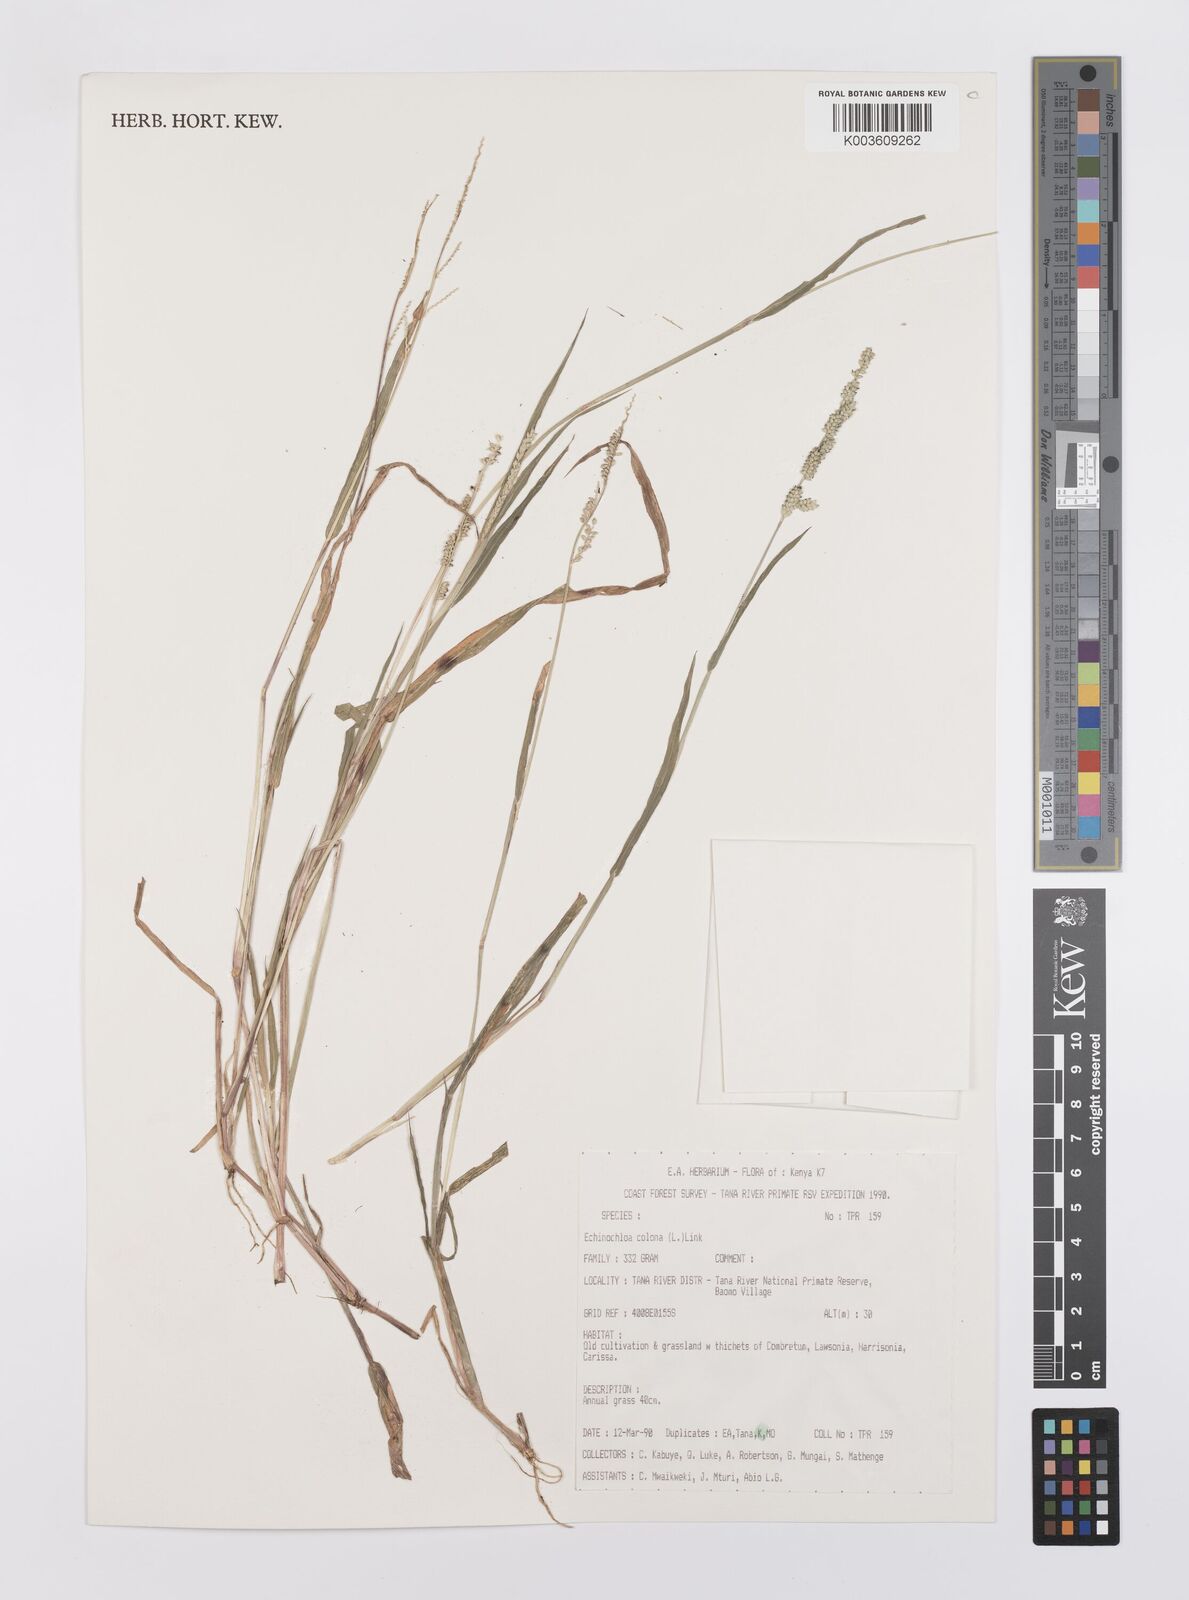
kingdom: Plantae
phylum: Tracheophyta
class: Liliopsida
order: Poales
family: Poaceae
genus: Echinochloa
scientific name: Echinochloa colonum
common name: Jungle rice
